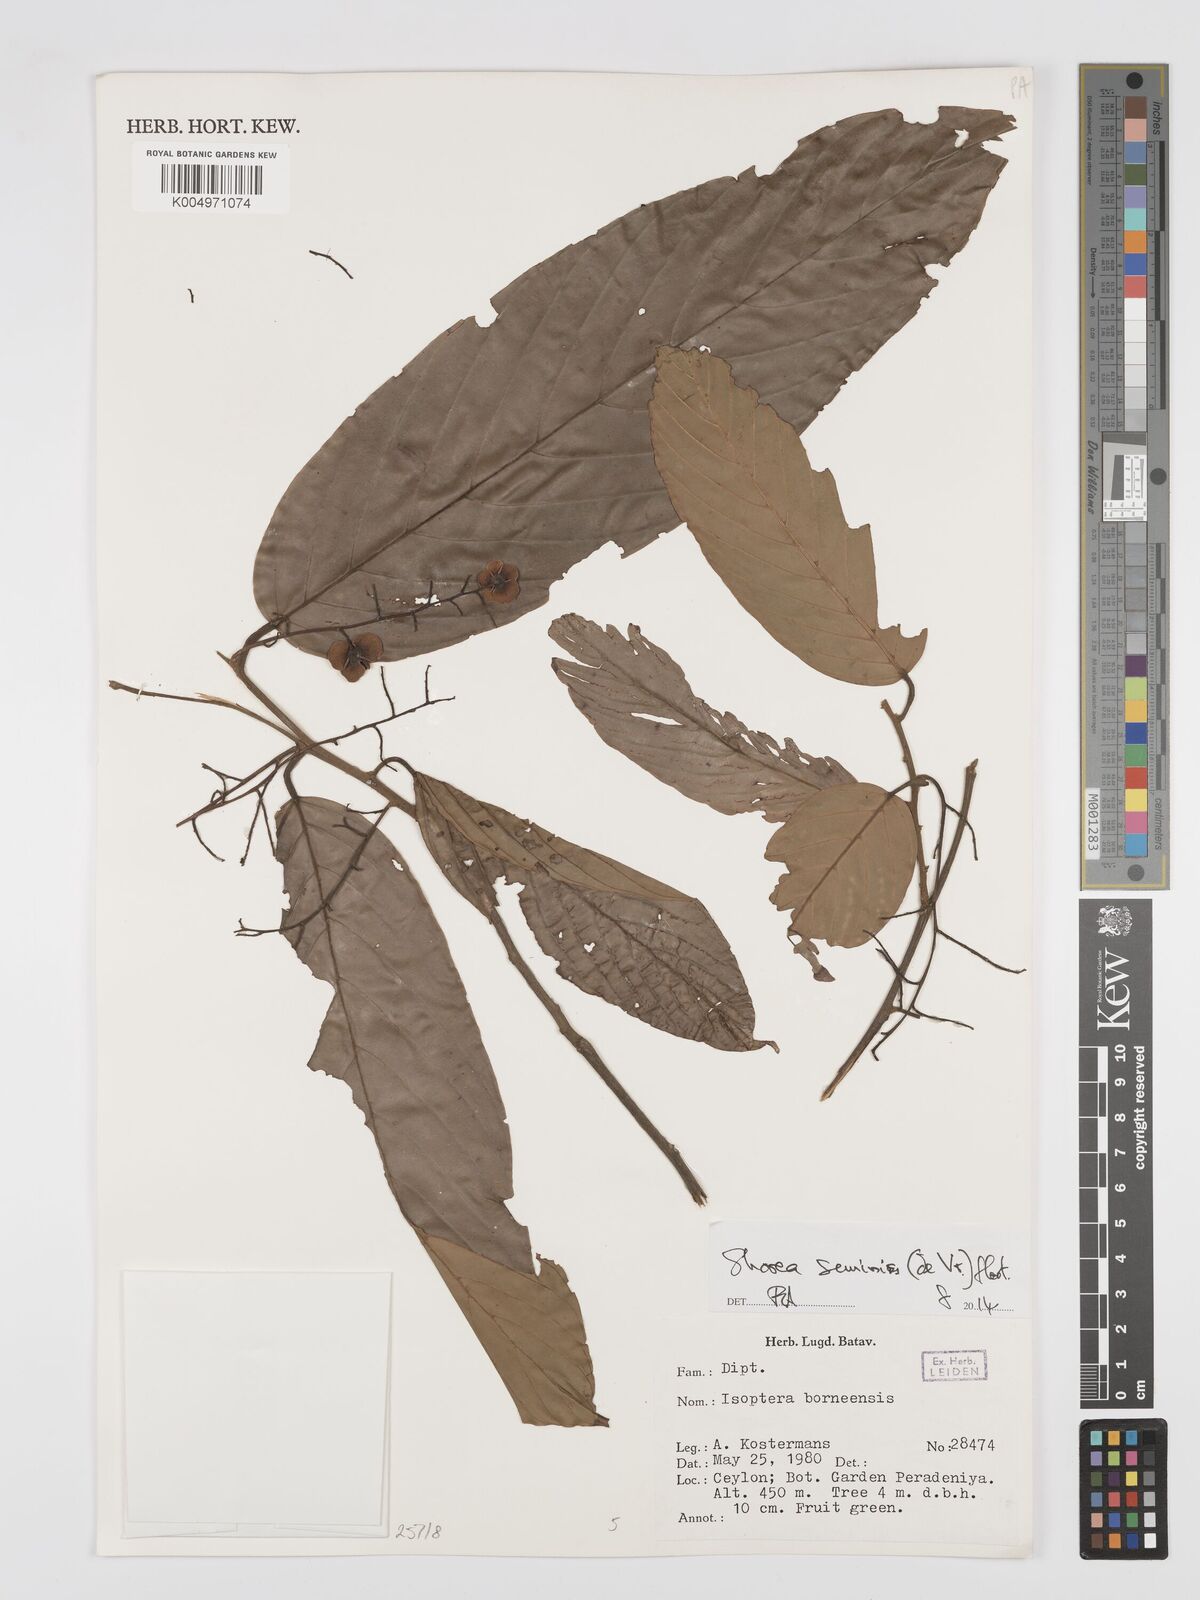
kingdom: Plantae
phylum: Tracheophyta
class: Magnoliopsida
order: Malvales
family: Dipterocarpaceae
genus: Shorea
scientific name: Shorea seminis
